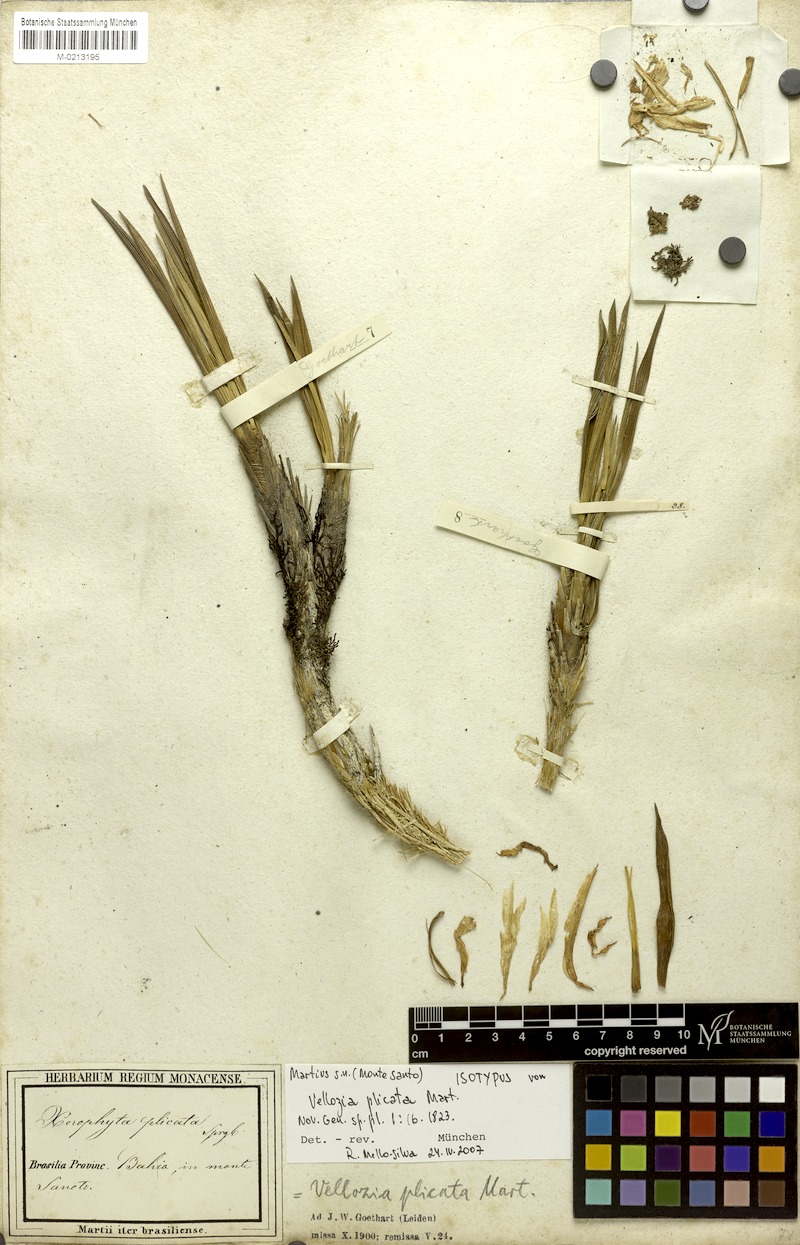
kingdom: Plantae
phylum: Tracheophyta
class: Liliopsida
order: Pandanales
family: Velloziaceae
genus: Nanuza
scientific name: Nanuza plicata
